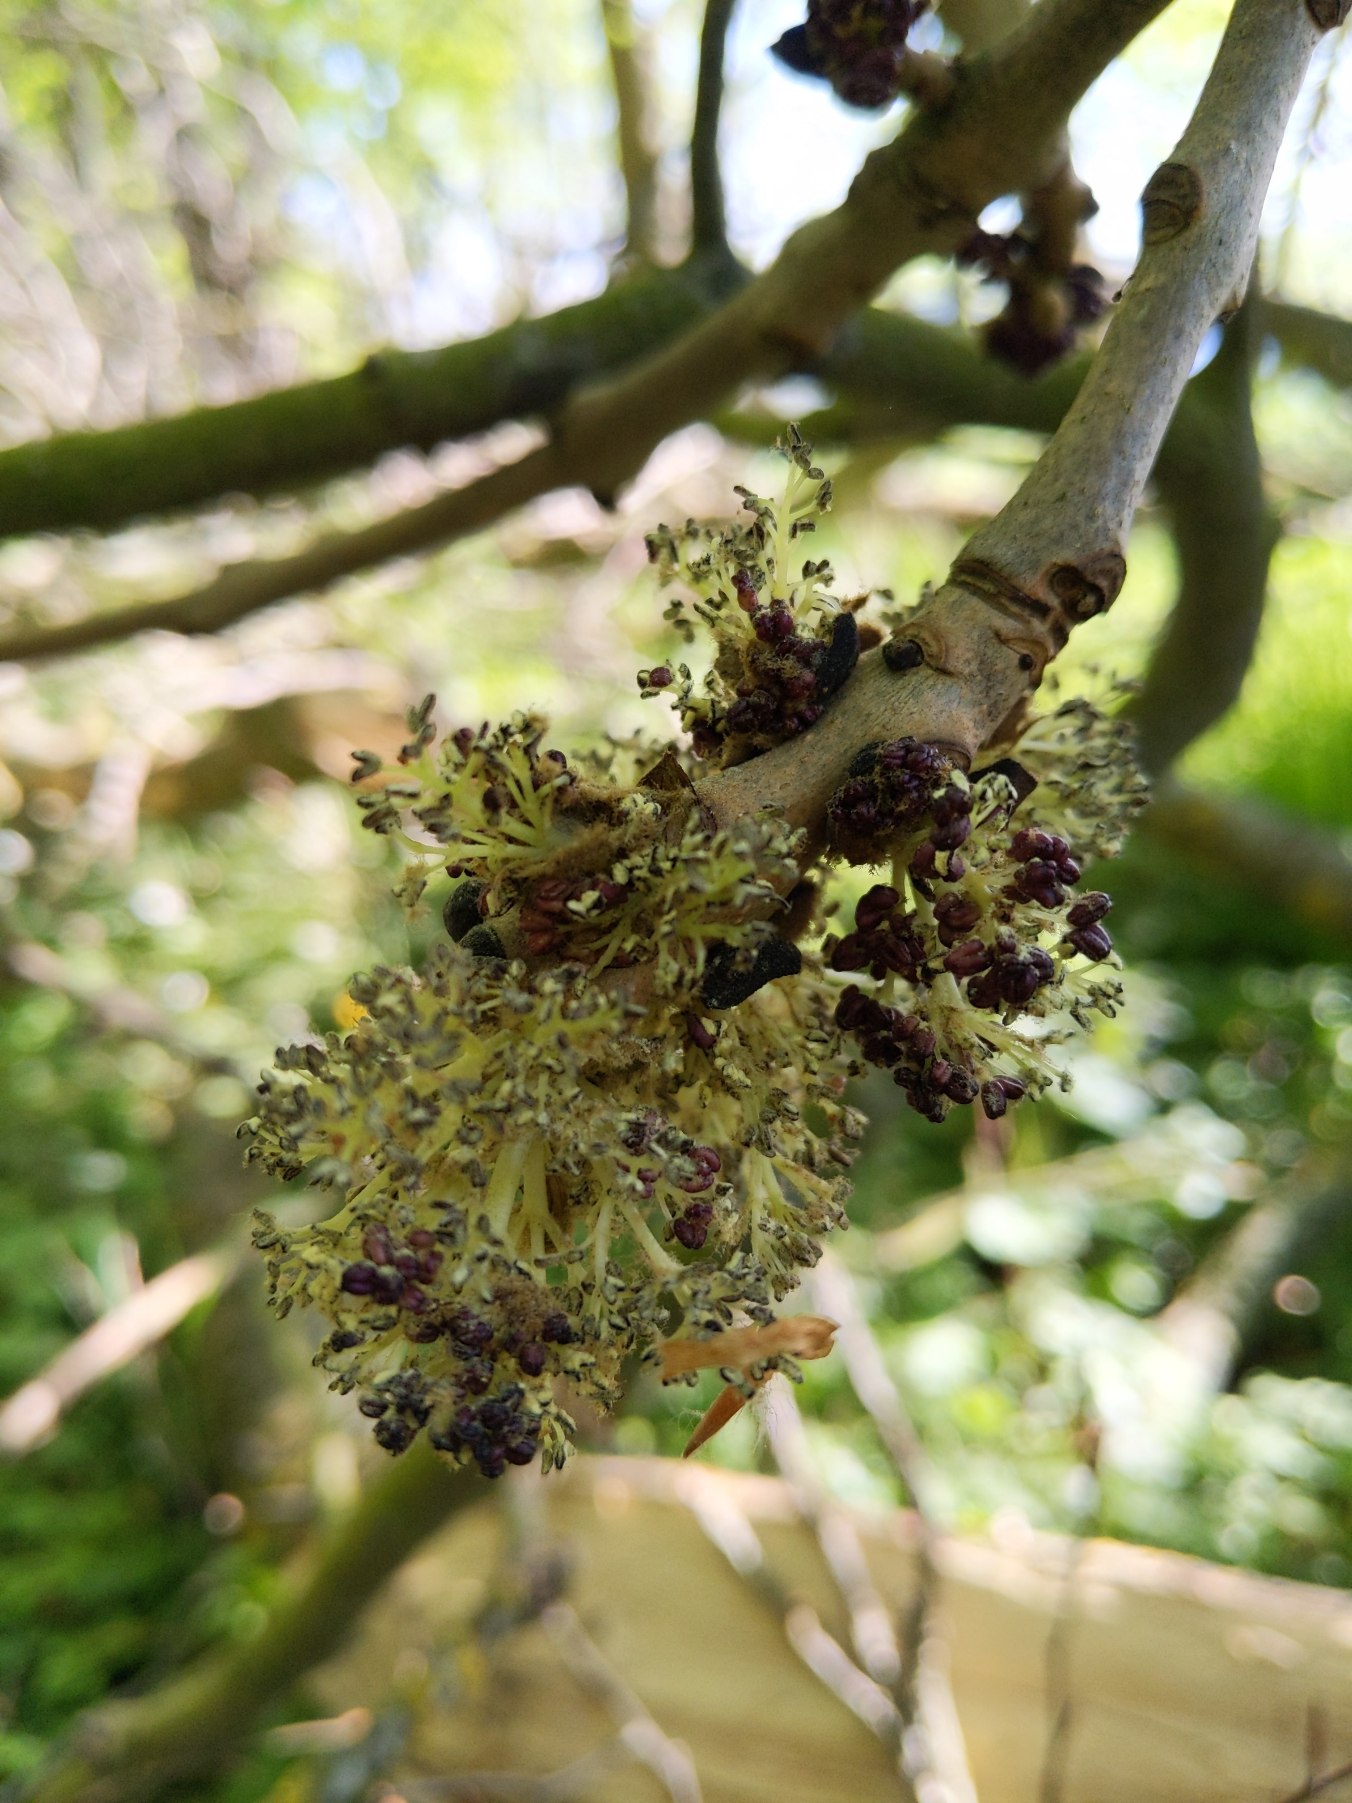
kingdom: Plantae
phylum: Tracheophyta
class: Magnoliopsida
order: Lamiales
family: Oleaceae
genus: Fraxinus
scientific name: Fraxinus excelsior
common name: Ask
